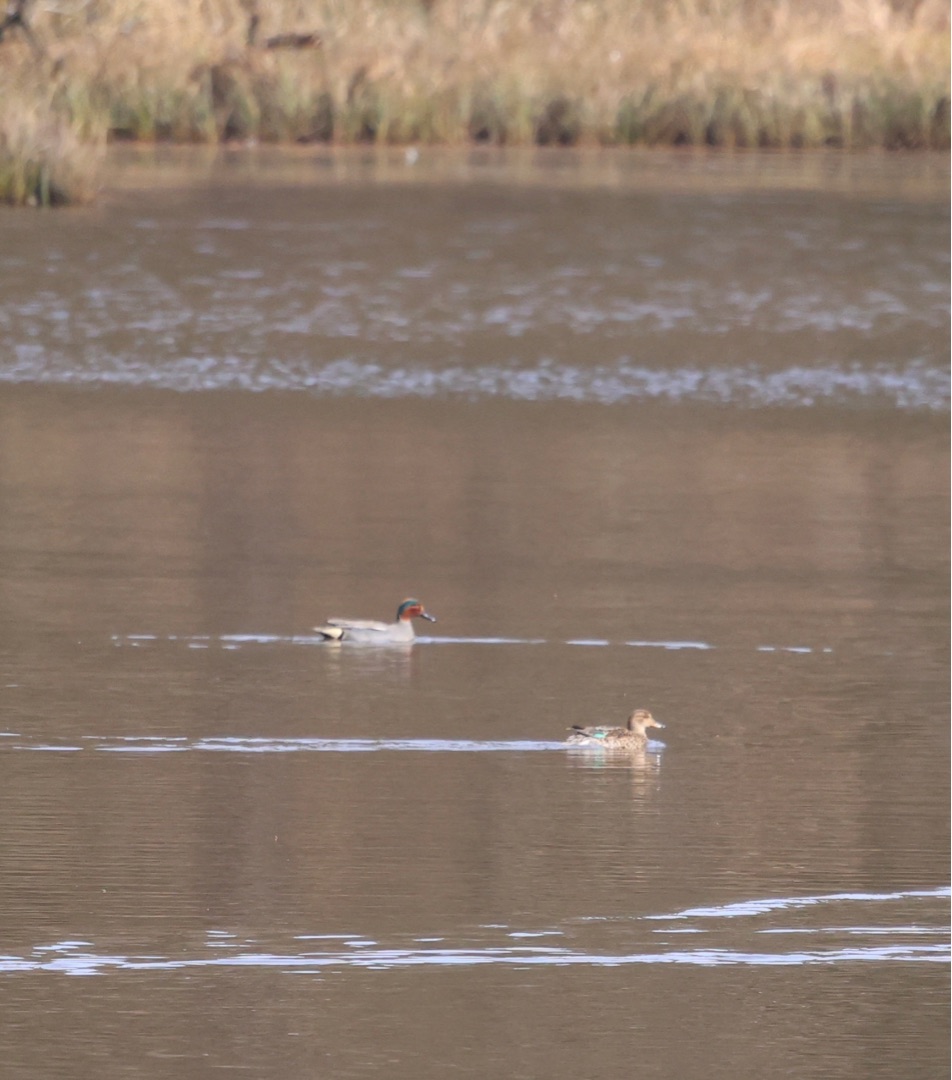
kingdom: Animalia
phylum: Chordata
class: Aves
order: Anseriformes
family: Anatidae
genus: Anas
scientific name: Anas crecca
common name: Krikand
